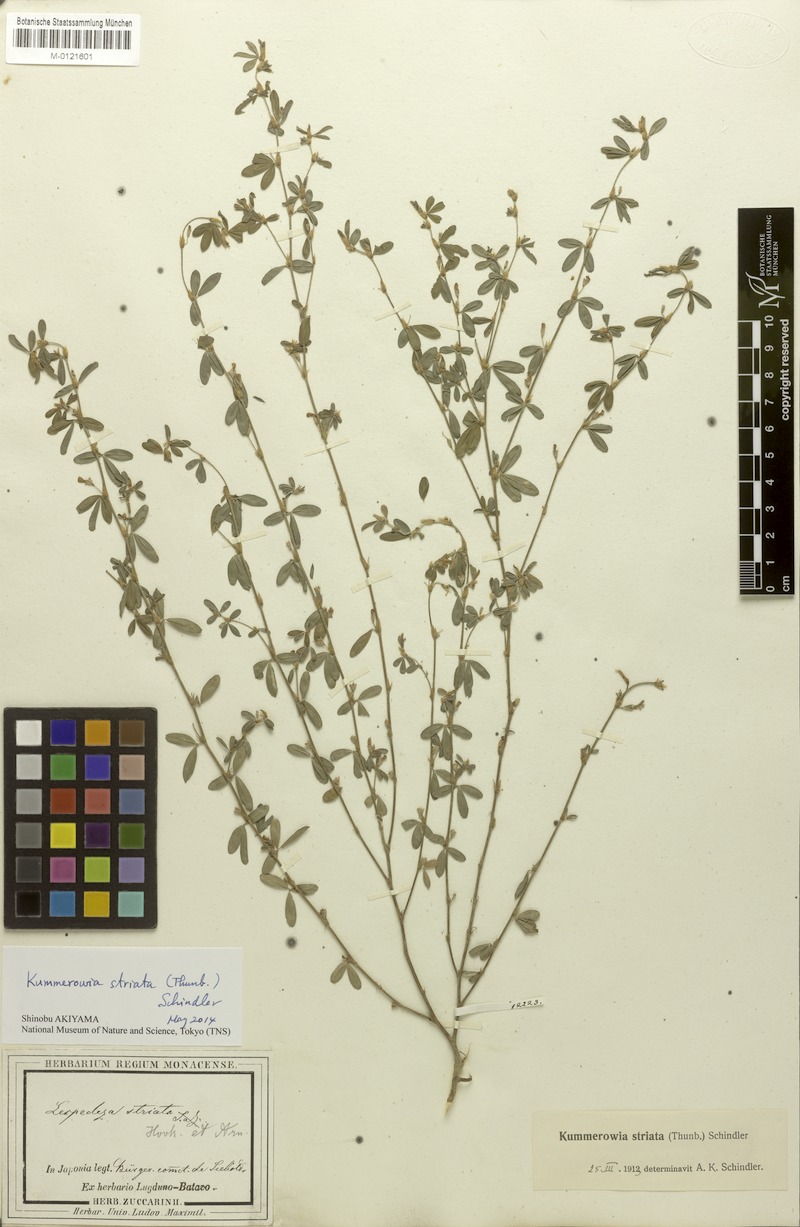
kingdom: Plantae
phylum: Tracheophyta
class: Magnoliopsida
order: Fabales
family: Fabaceae
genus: Kummerowia
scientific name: Kummerowia striata
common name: Japanese clover
